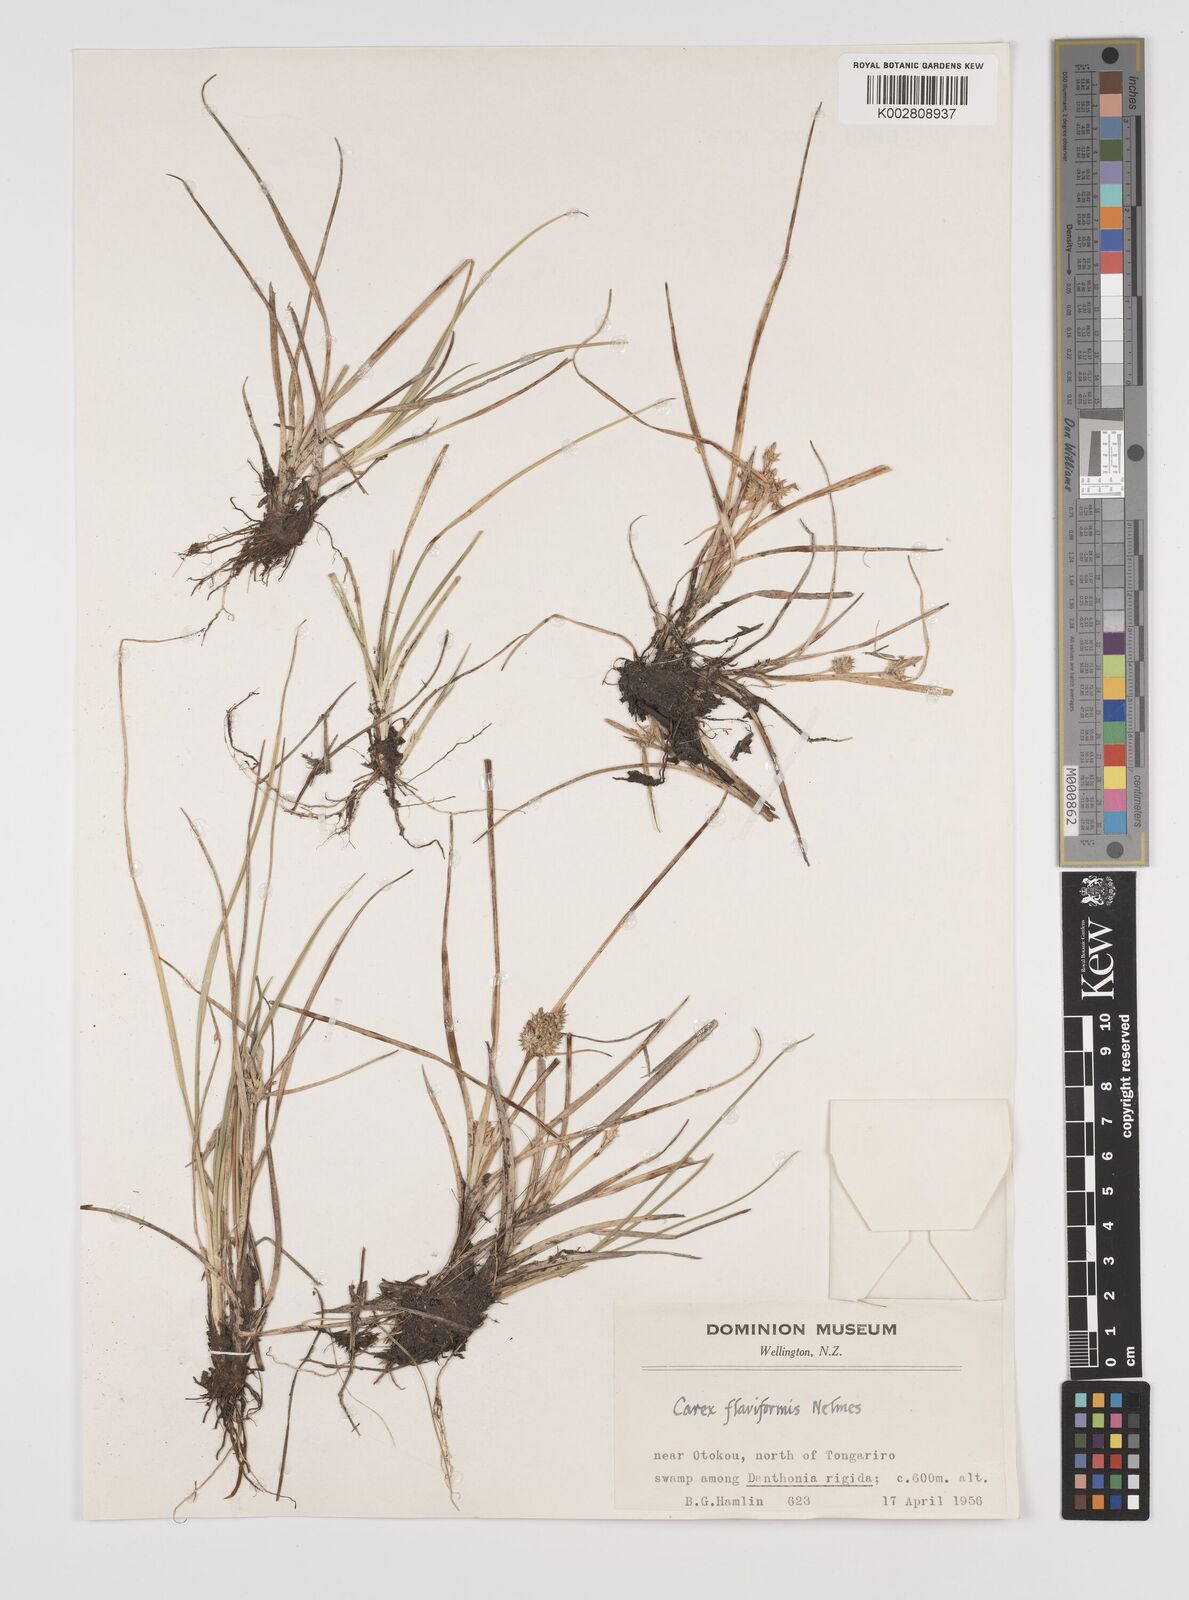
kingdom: Plantae
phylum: Tracheophyta
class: Liliopsida
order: Poales
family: Cyperaceae
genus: Carex
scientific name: Carex flaviformis
